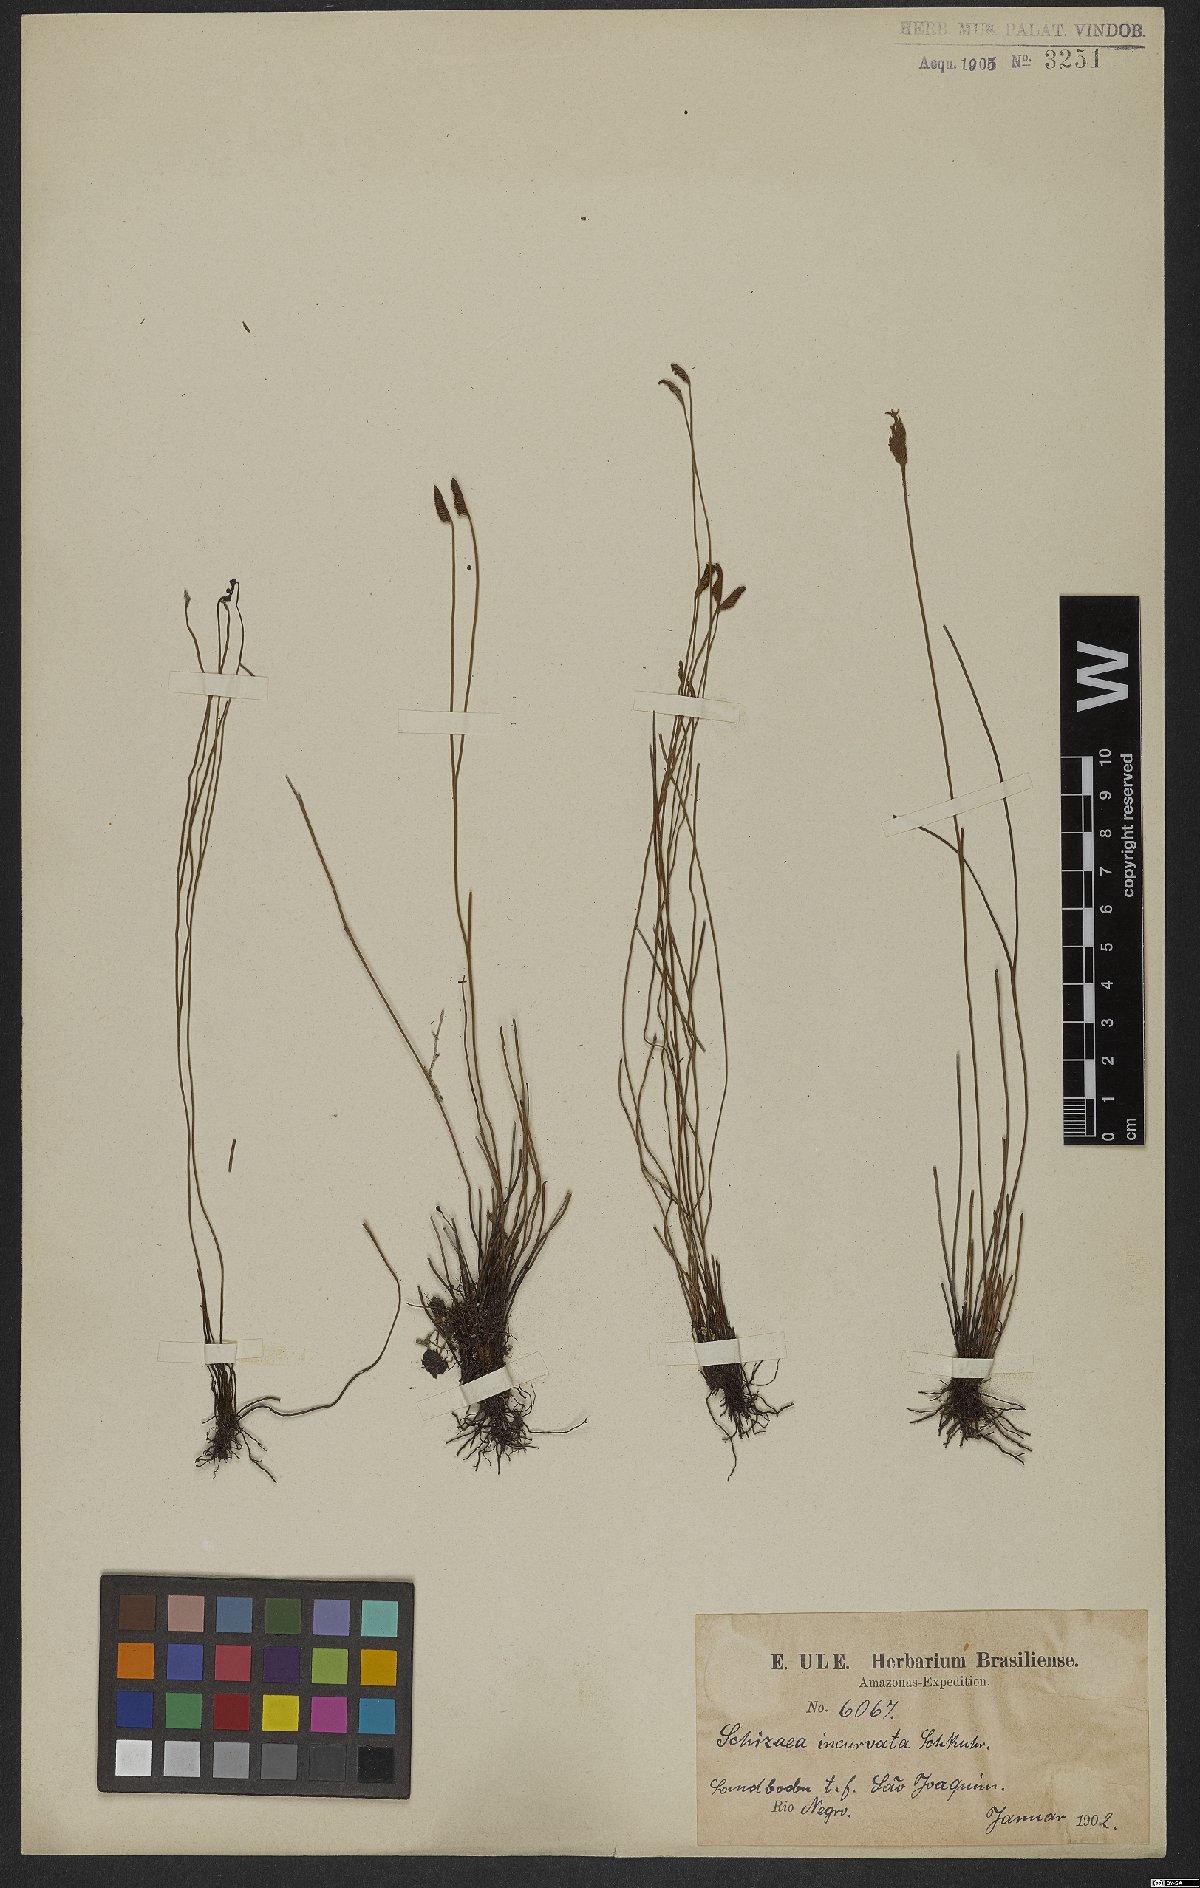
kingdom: Plantae
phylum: Tracheophyta
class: Polypodiopsida
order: Schizaeales
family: Schizaeaceae
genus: Schizaea
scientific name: Schizaea incurvata
